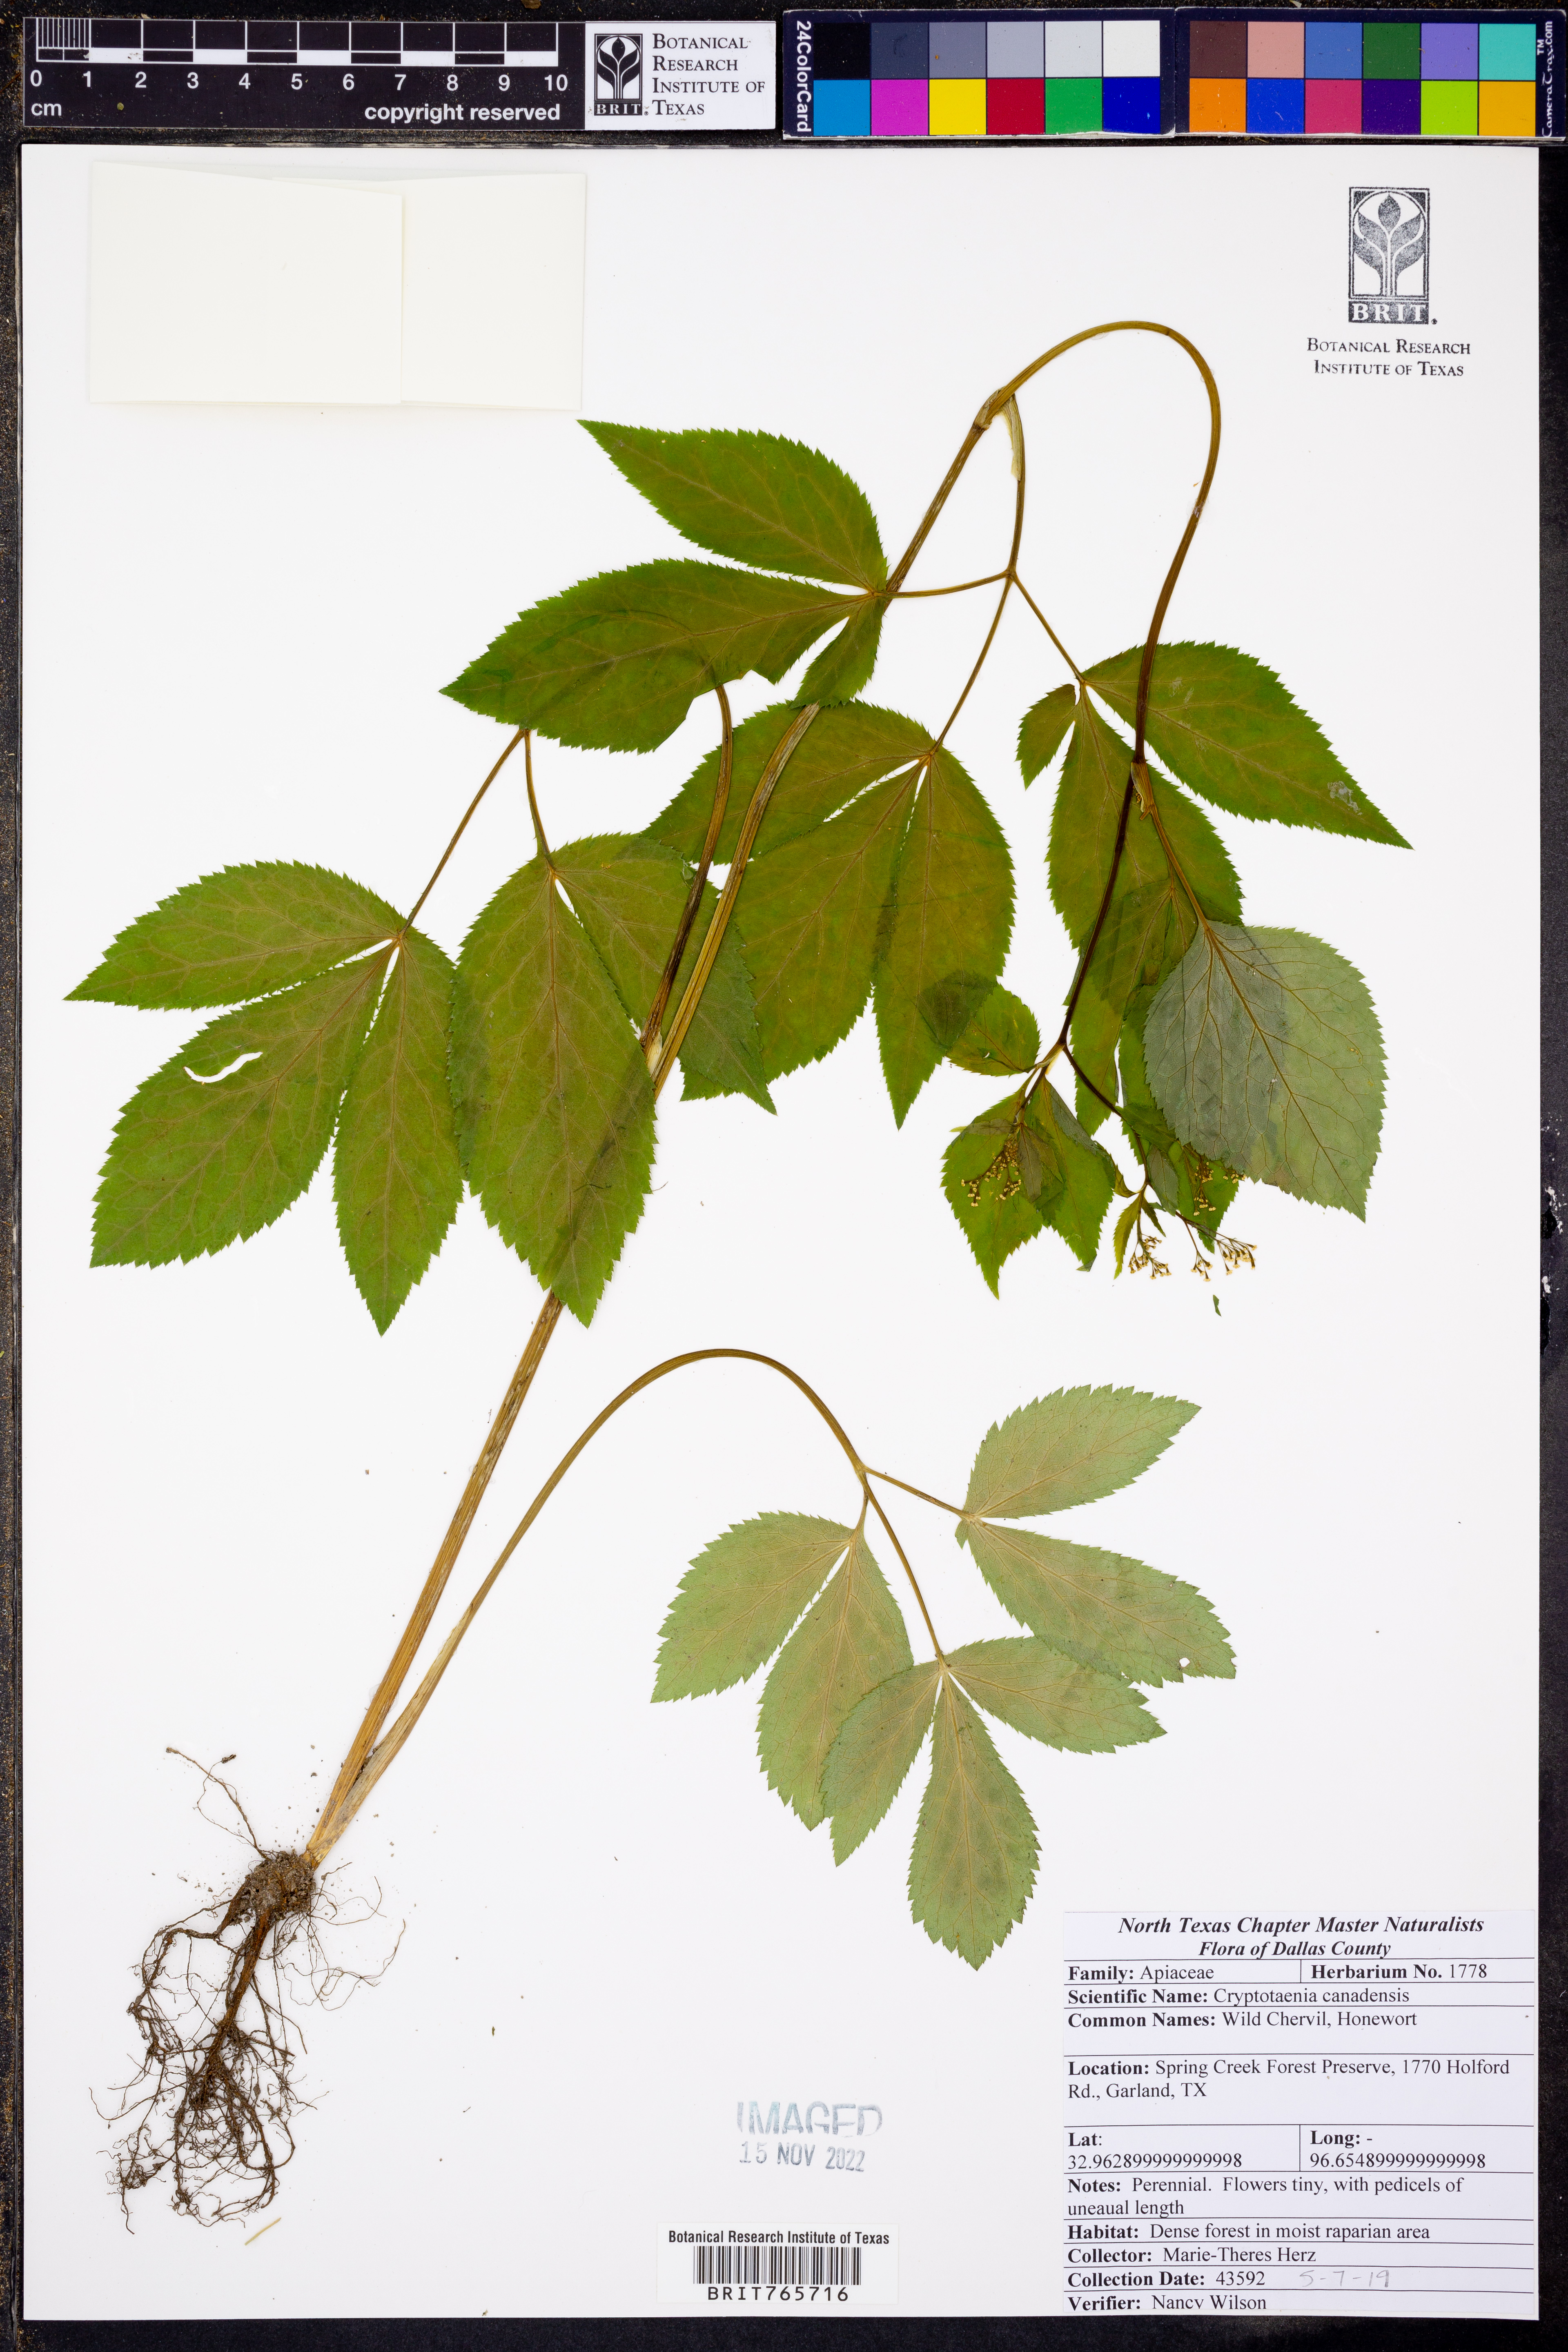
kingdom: Plantae
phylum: Tracheophyta
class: Magnoliopsida
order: Apiales
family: Apiaceae
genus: Cryptotaenia
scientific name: Cryptotaenia canadensis
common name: Honewort
